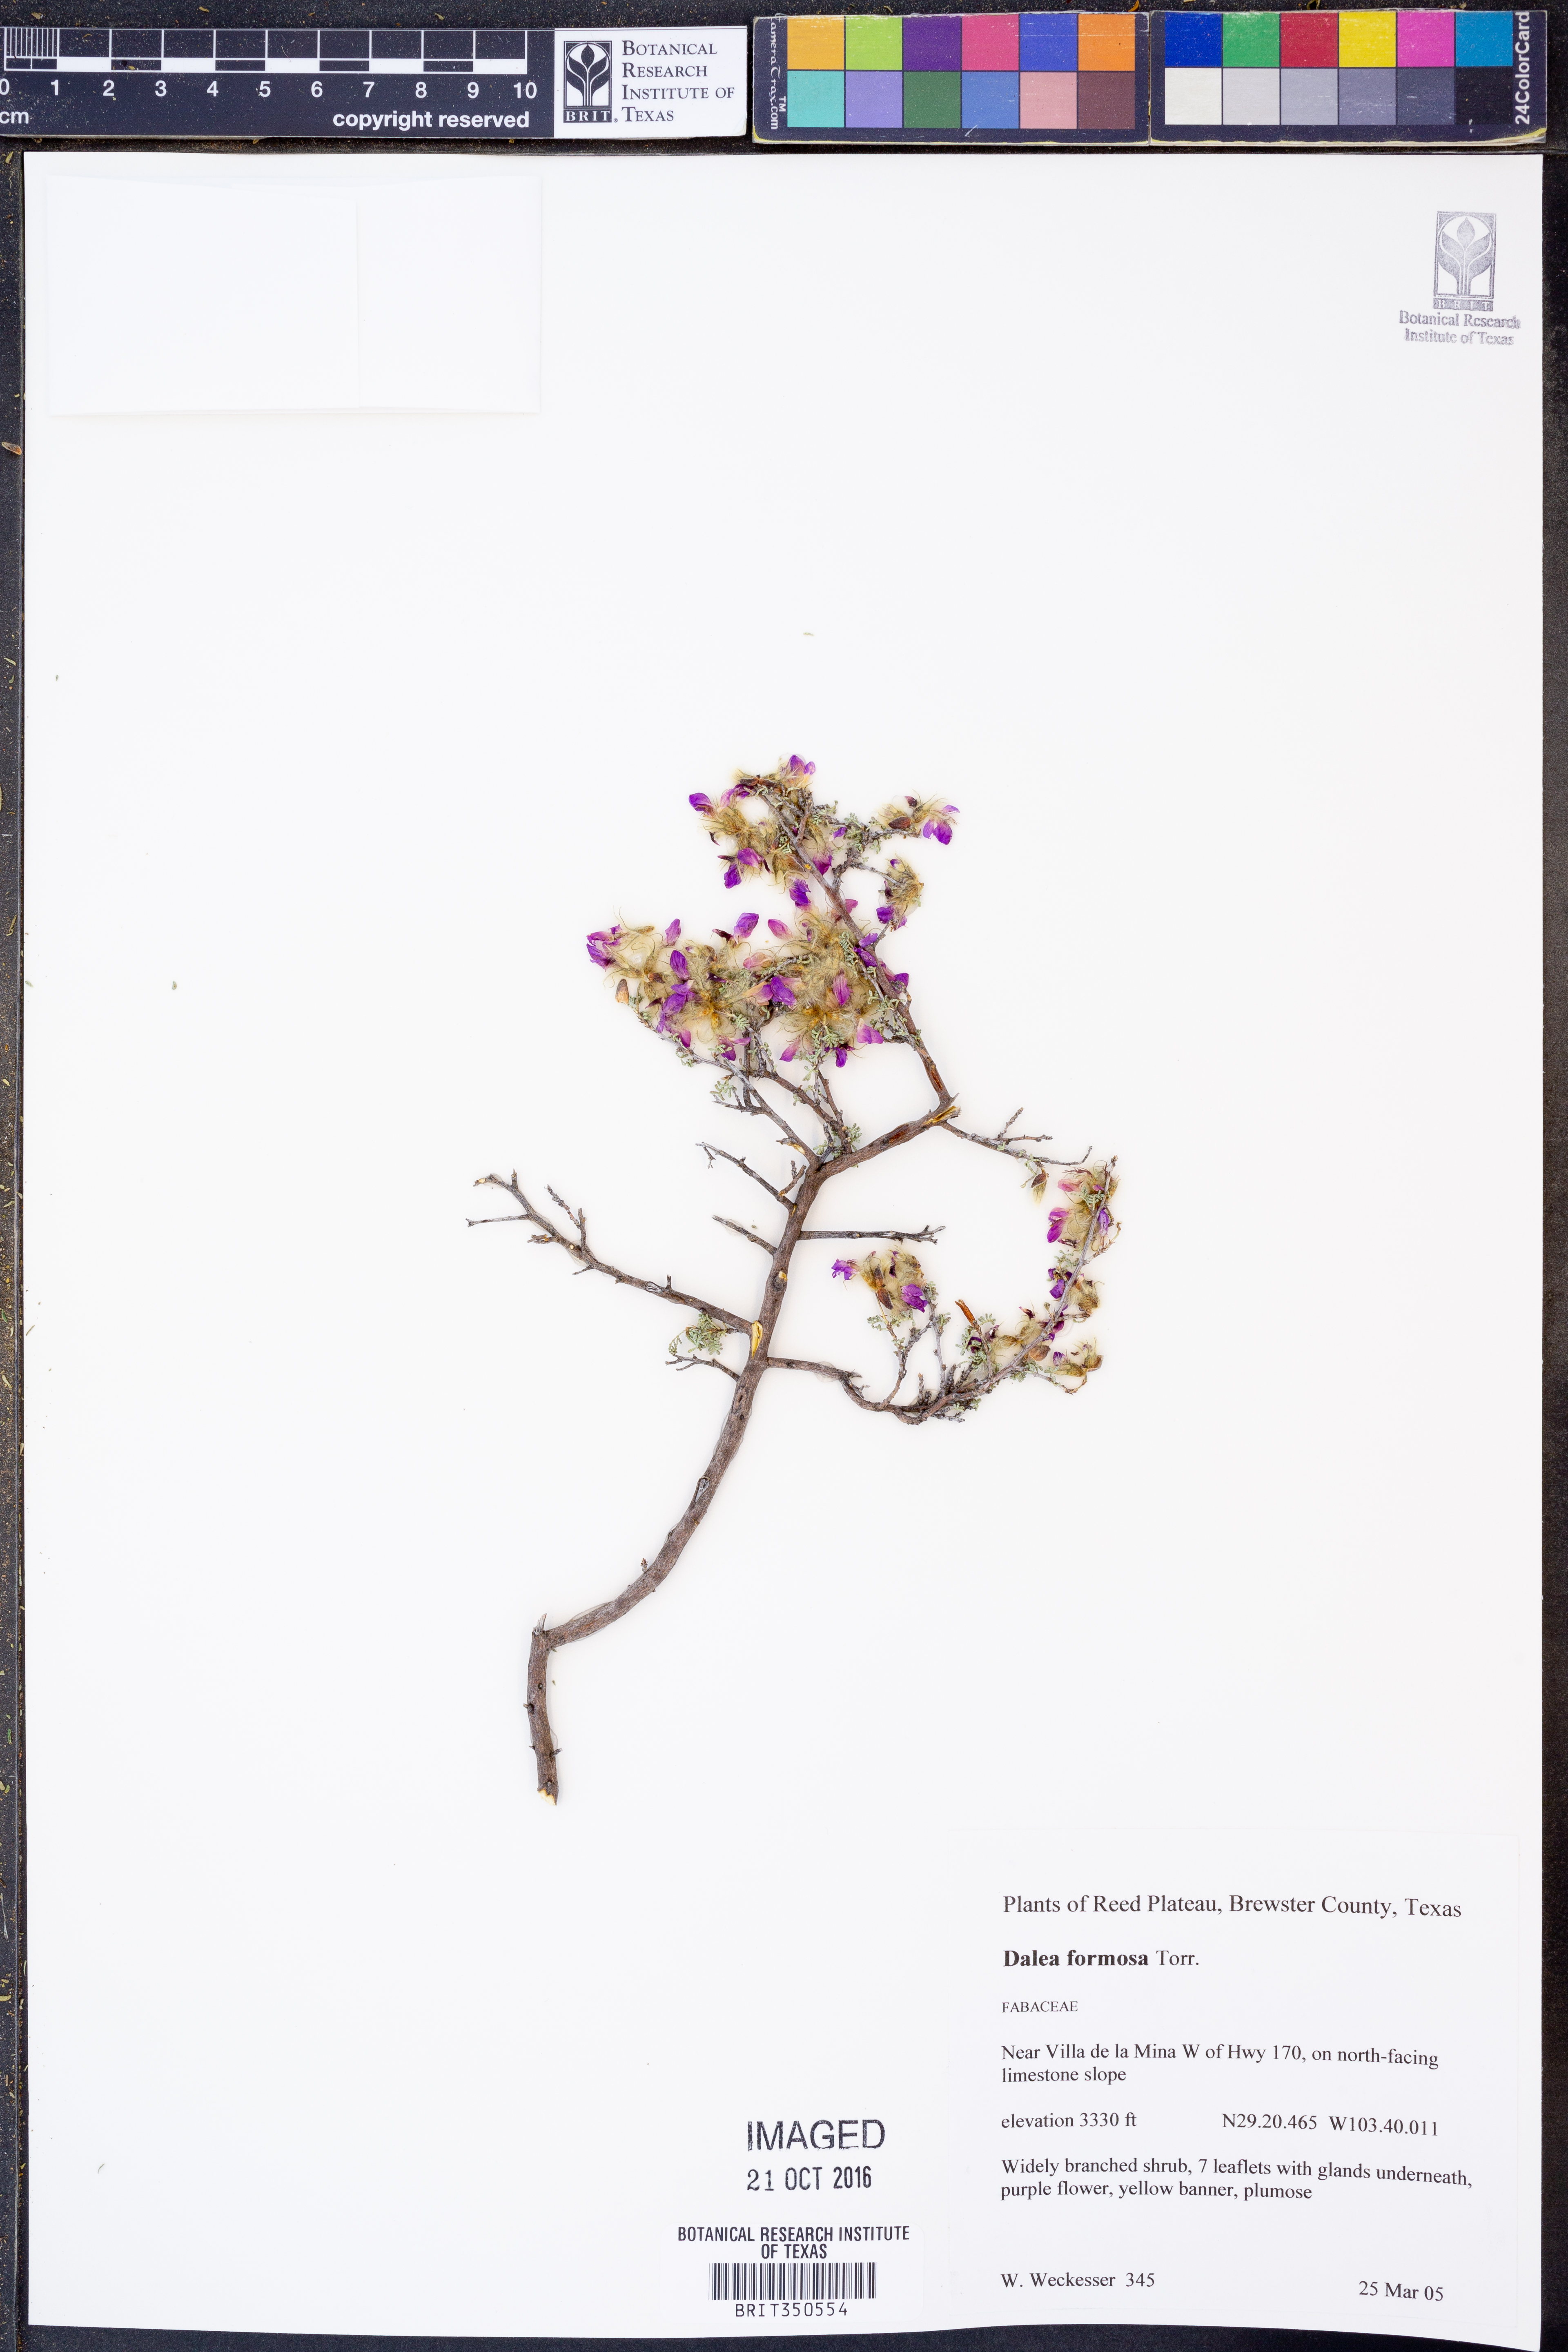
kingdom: Plantae
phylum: Tracheophyta
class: Magnoliopsida
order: Fabales
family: Fabaceae
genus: Dalea
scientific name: Dalea formosa
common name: Feather-plume dalea
